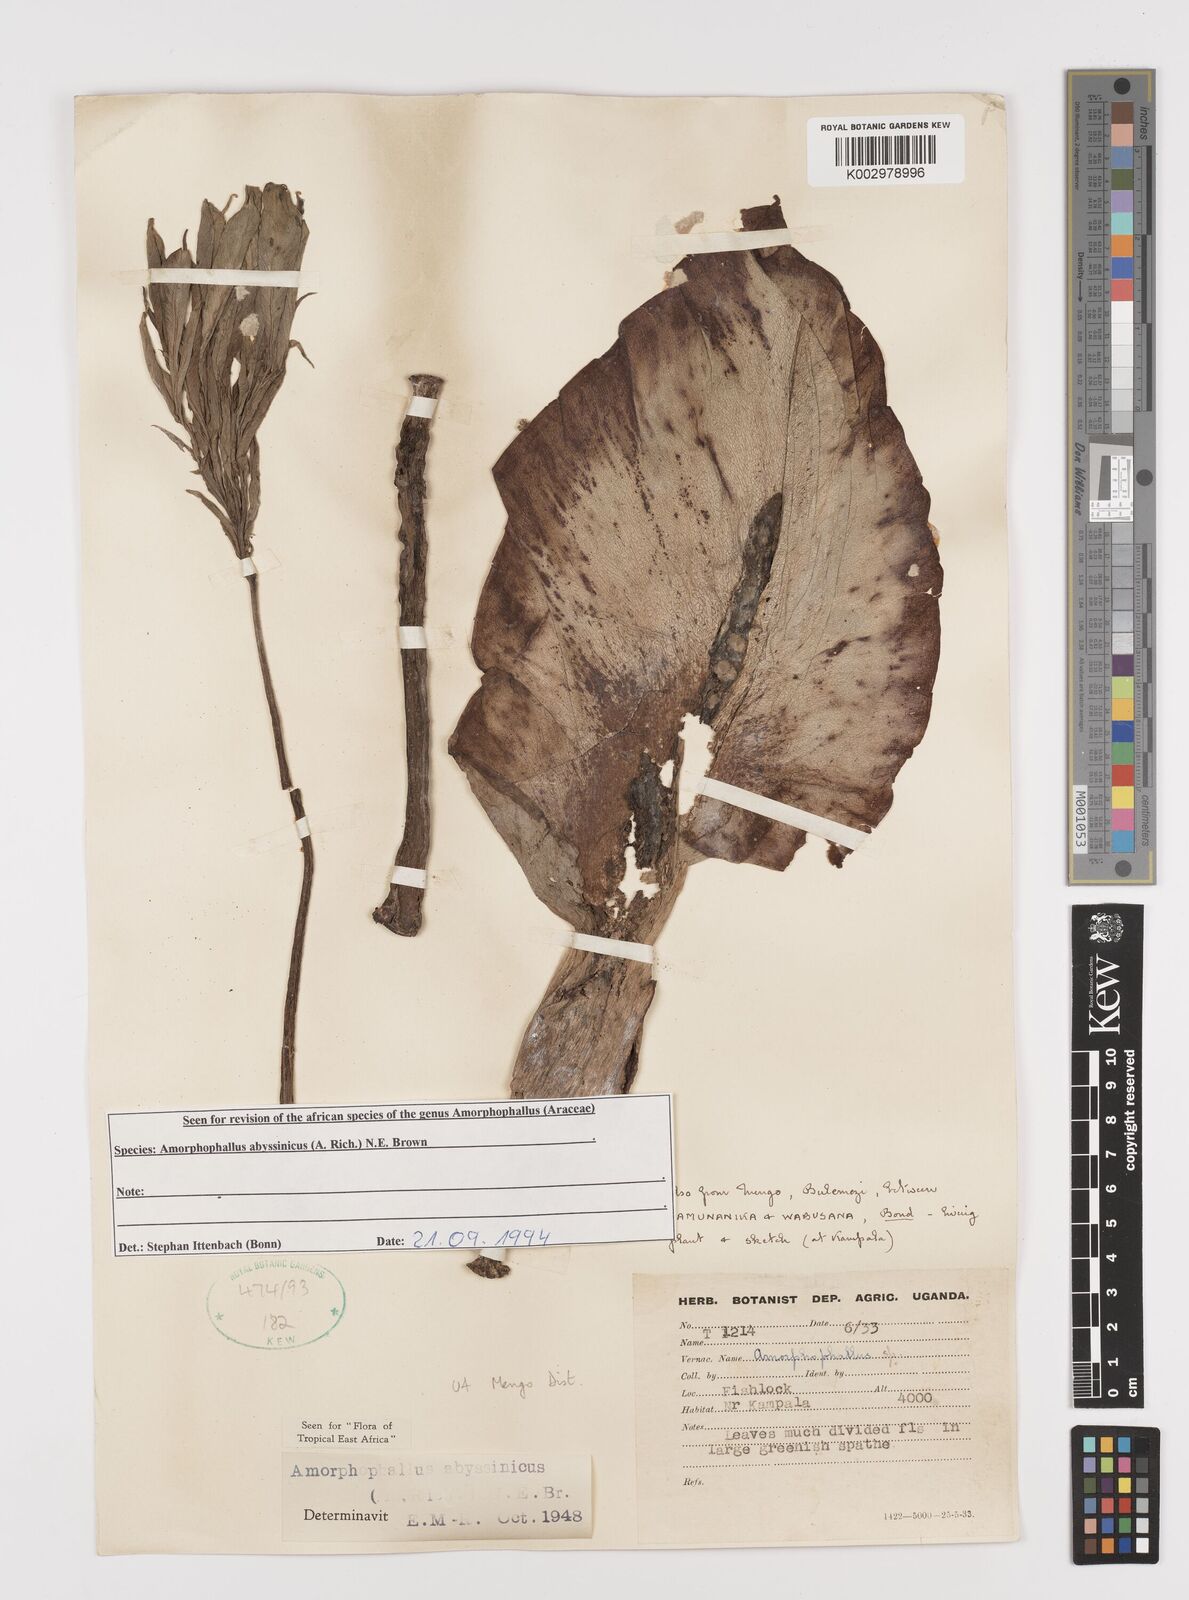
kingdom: Plantae
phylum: Tracheophyta
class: Liliopsida
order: Alismatales
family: Araceae
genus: Amorphophallus
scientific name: Amorphophallus abyssinicus
